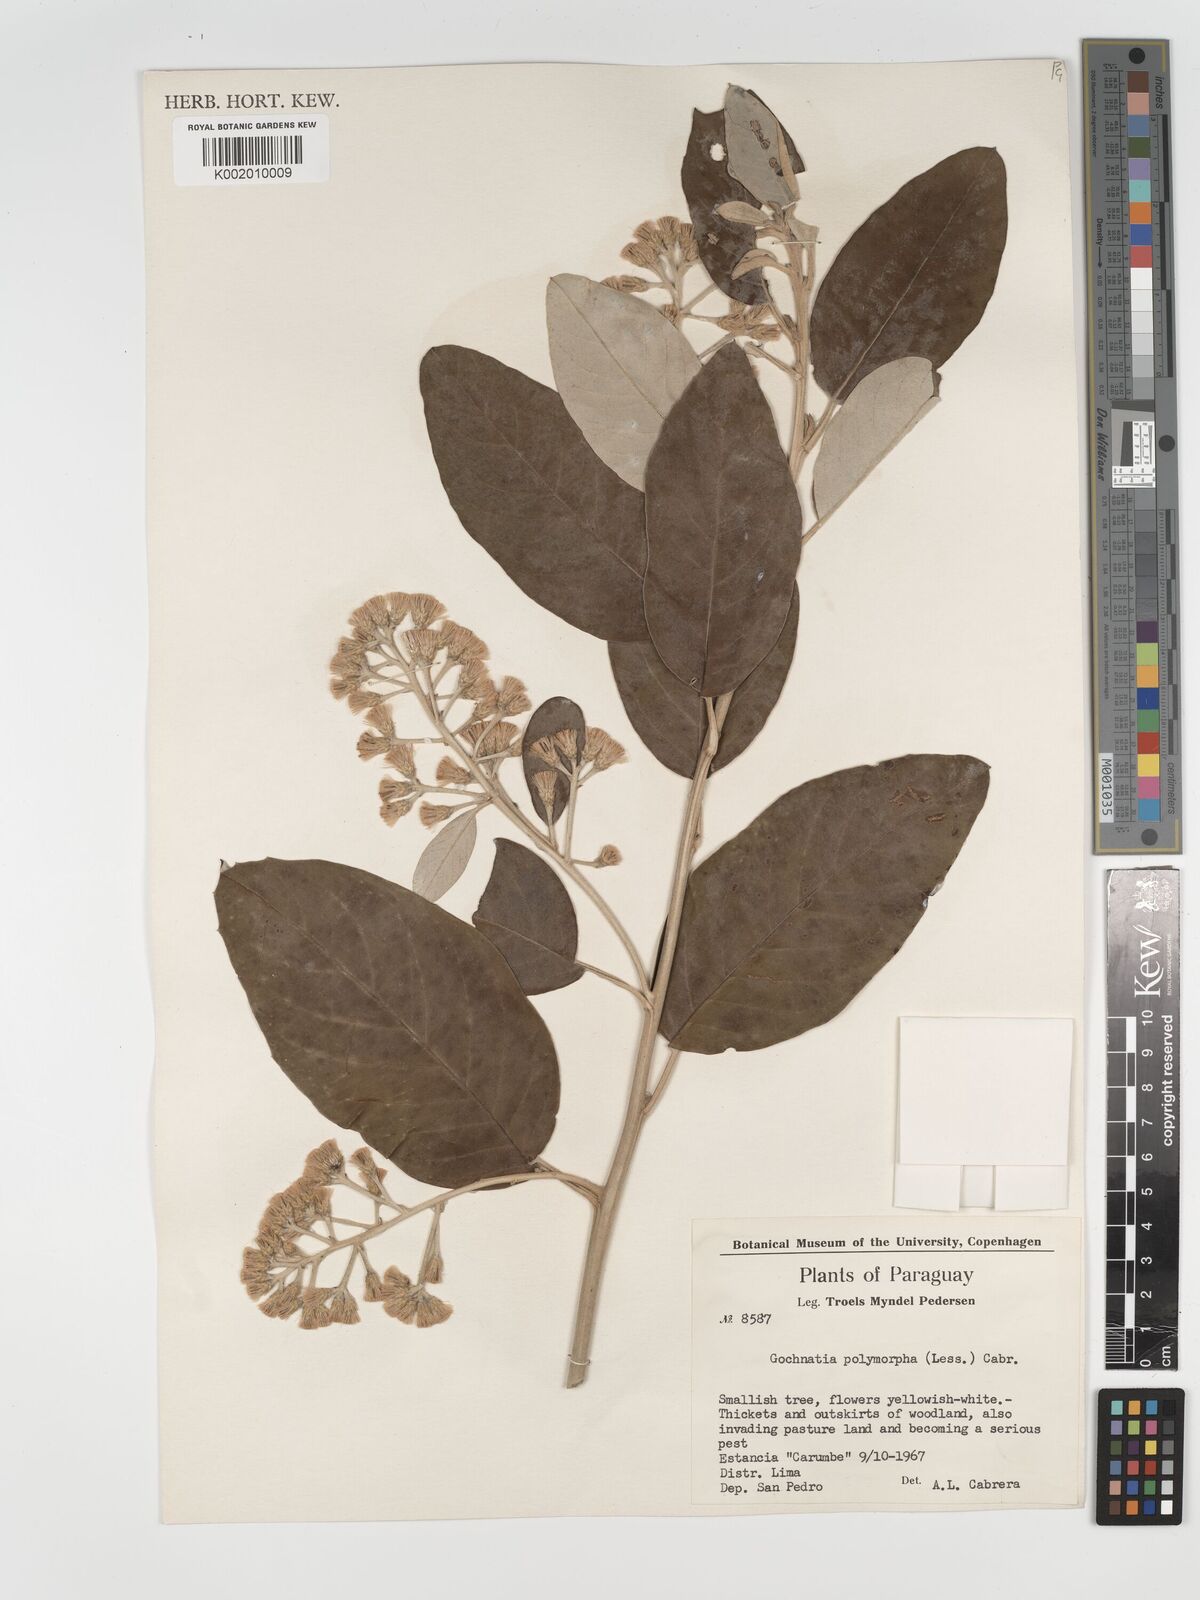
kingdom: Plantae
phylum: Tracheophyta
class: Magnoliopsida
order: Asterales
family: Asteraceae
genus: Moquiniastrum
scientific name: Moquiniastrum polymorphum
